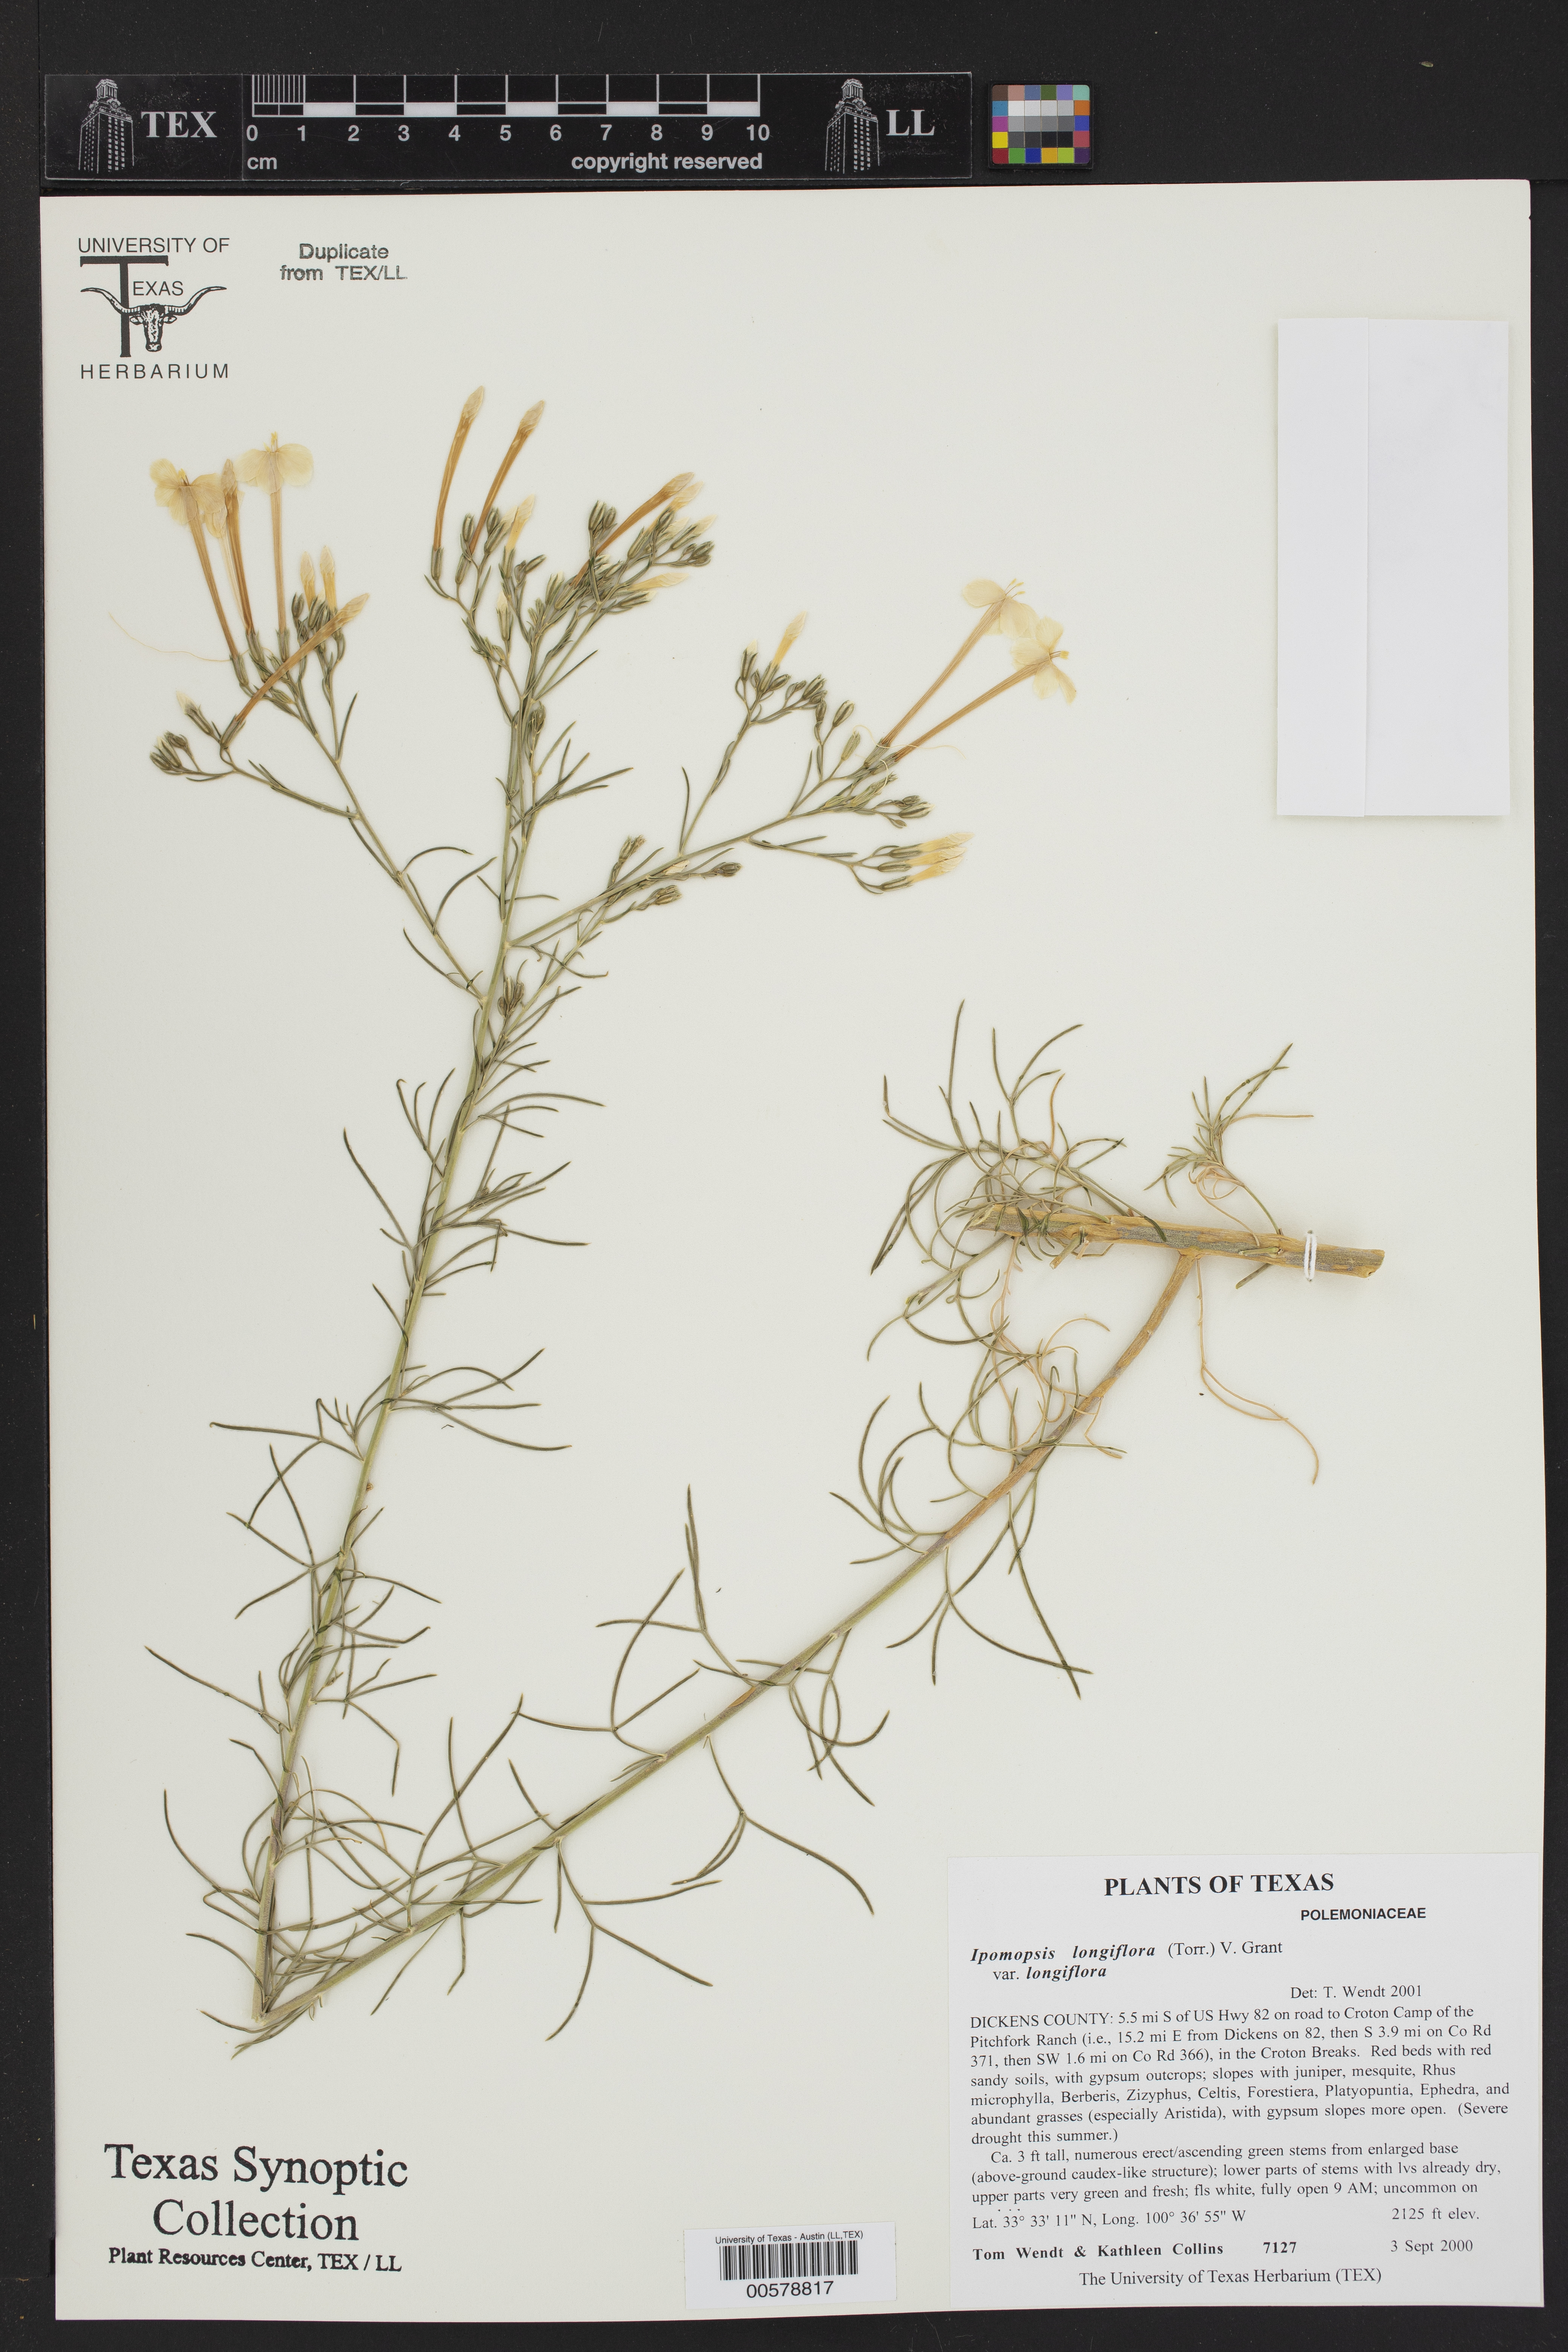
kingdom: Plantae
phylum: Tracheophyta
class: Magnoliopsida
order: Ericales
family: Polemoniaceae
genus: Ipomopsis
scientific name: Ipomopsis longiflora
